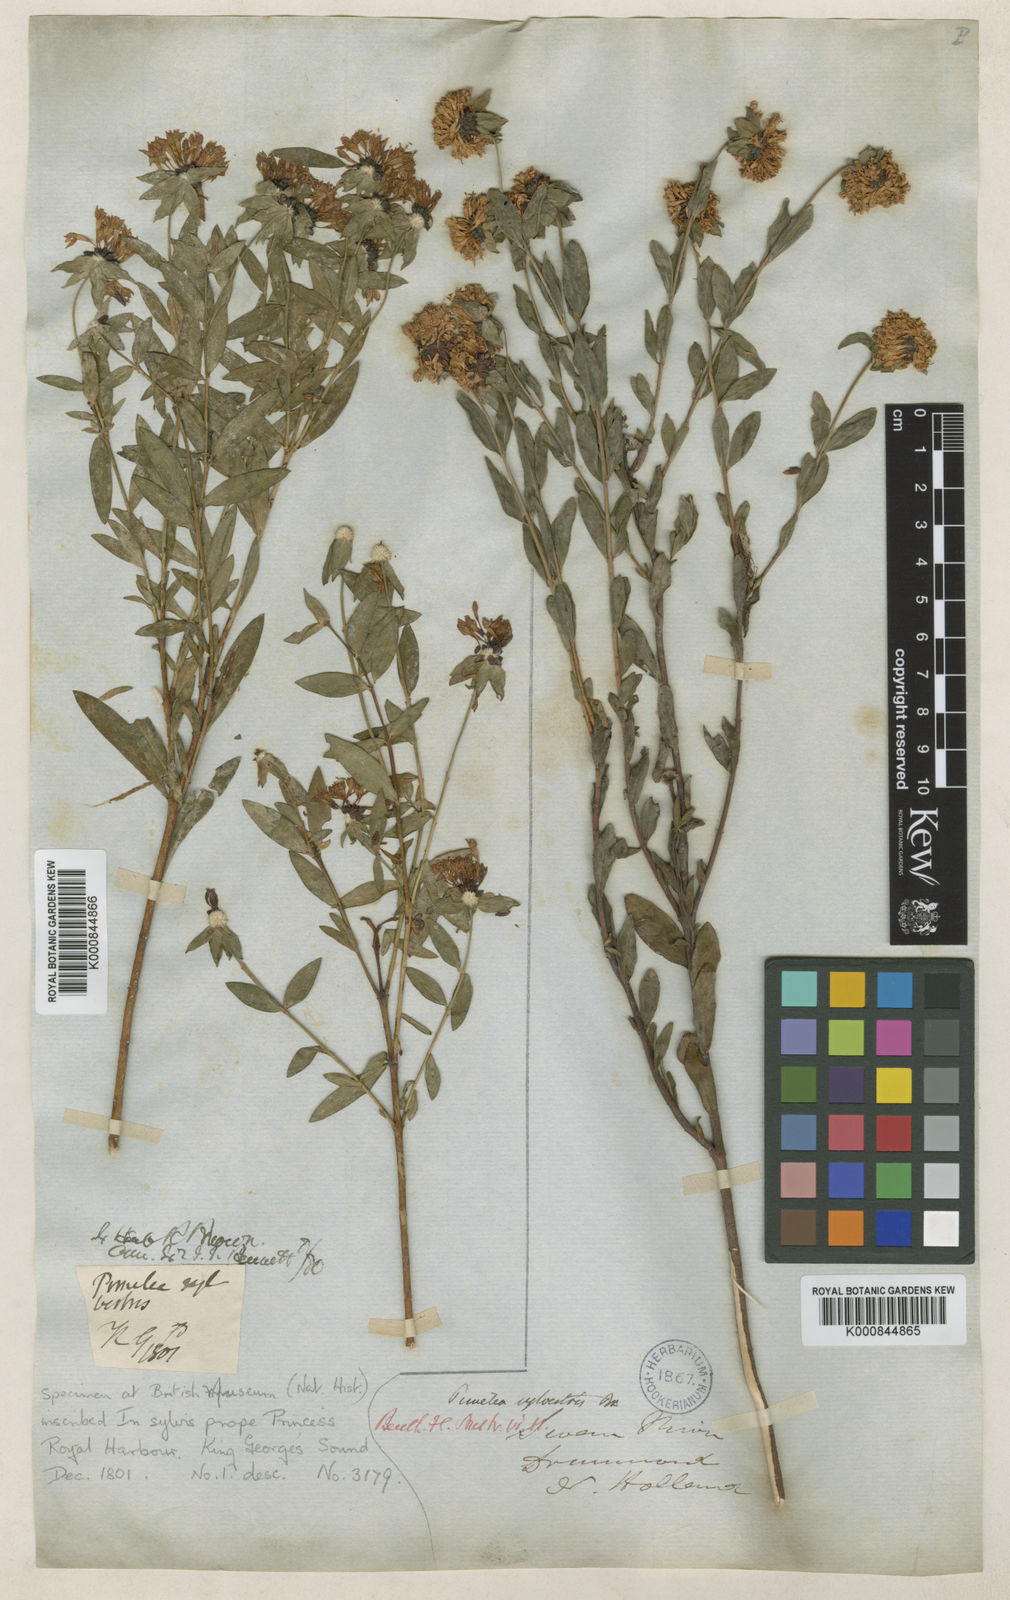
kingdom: Plantae
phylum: Tracheophyta
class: Magnoliopsida
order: Malvales
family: Thymelaeaceae
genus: Pimelea
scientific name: Pimelea sylvestris
